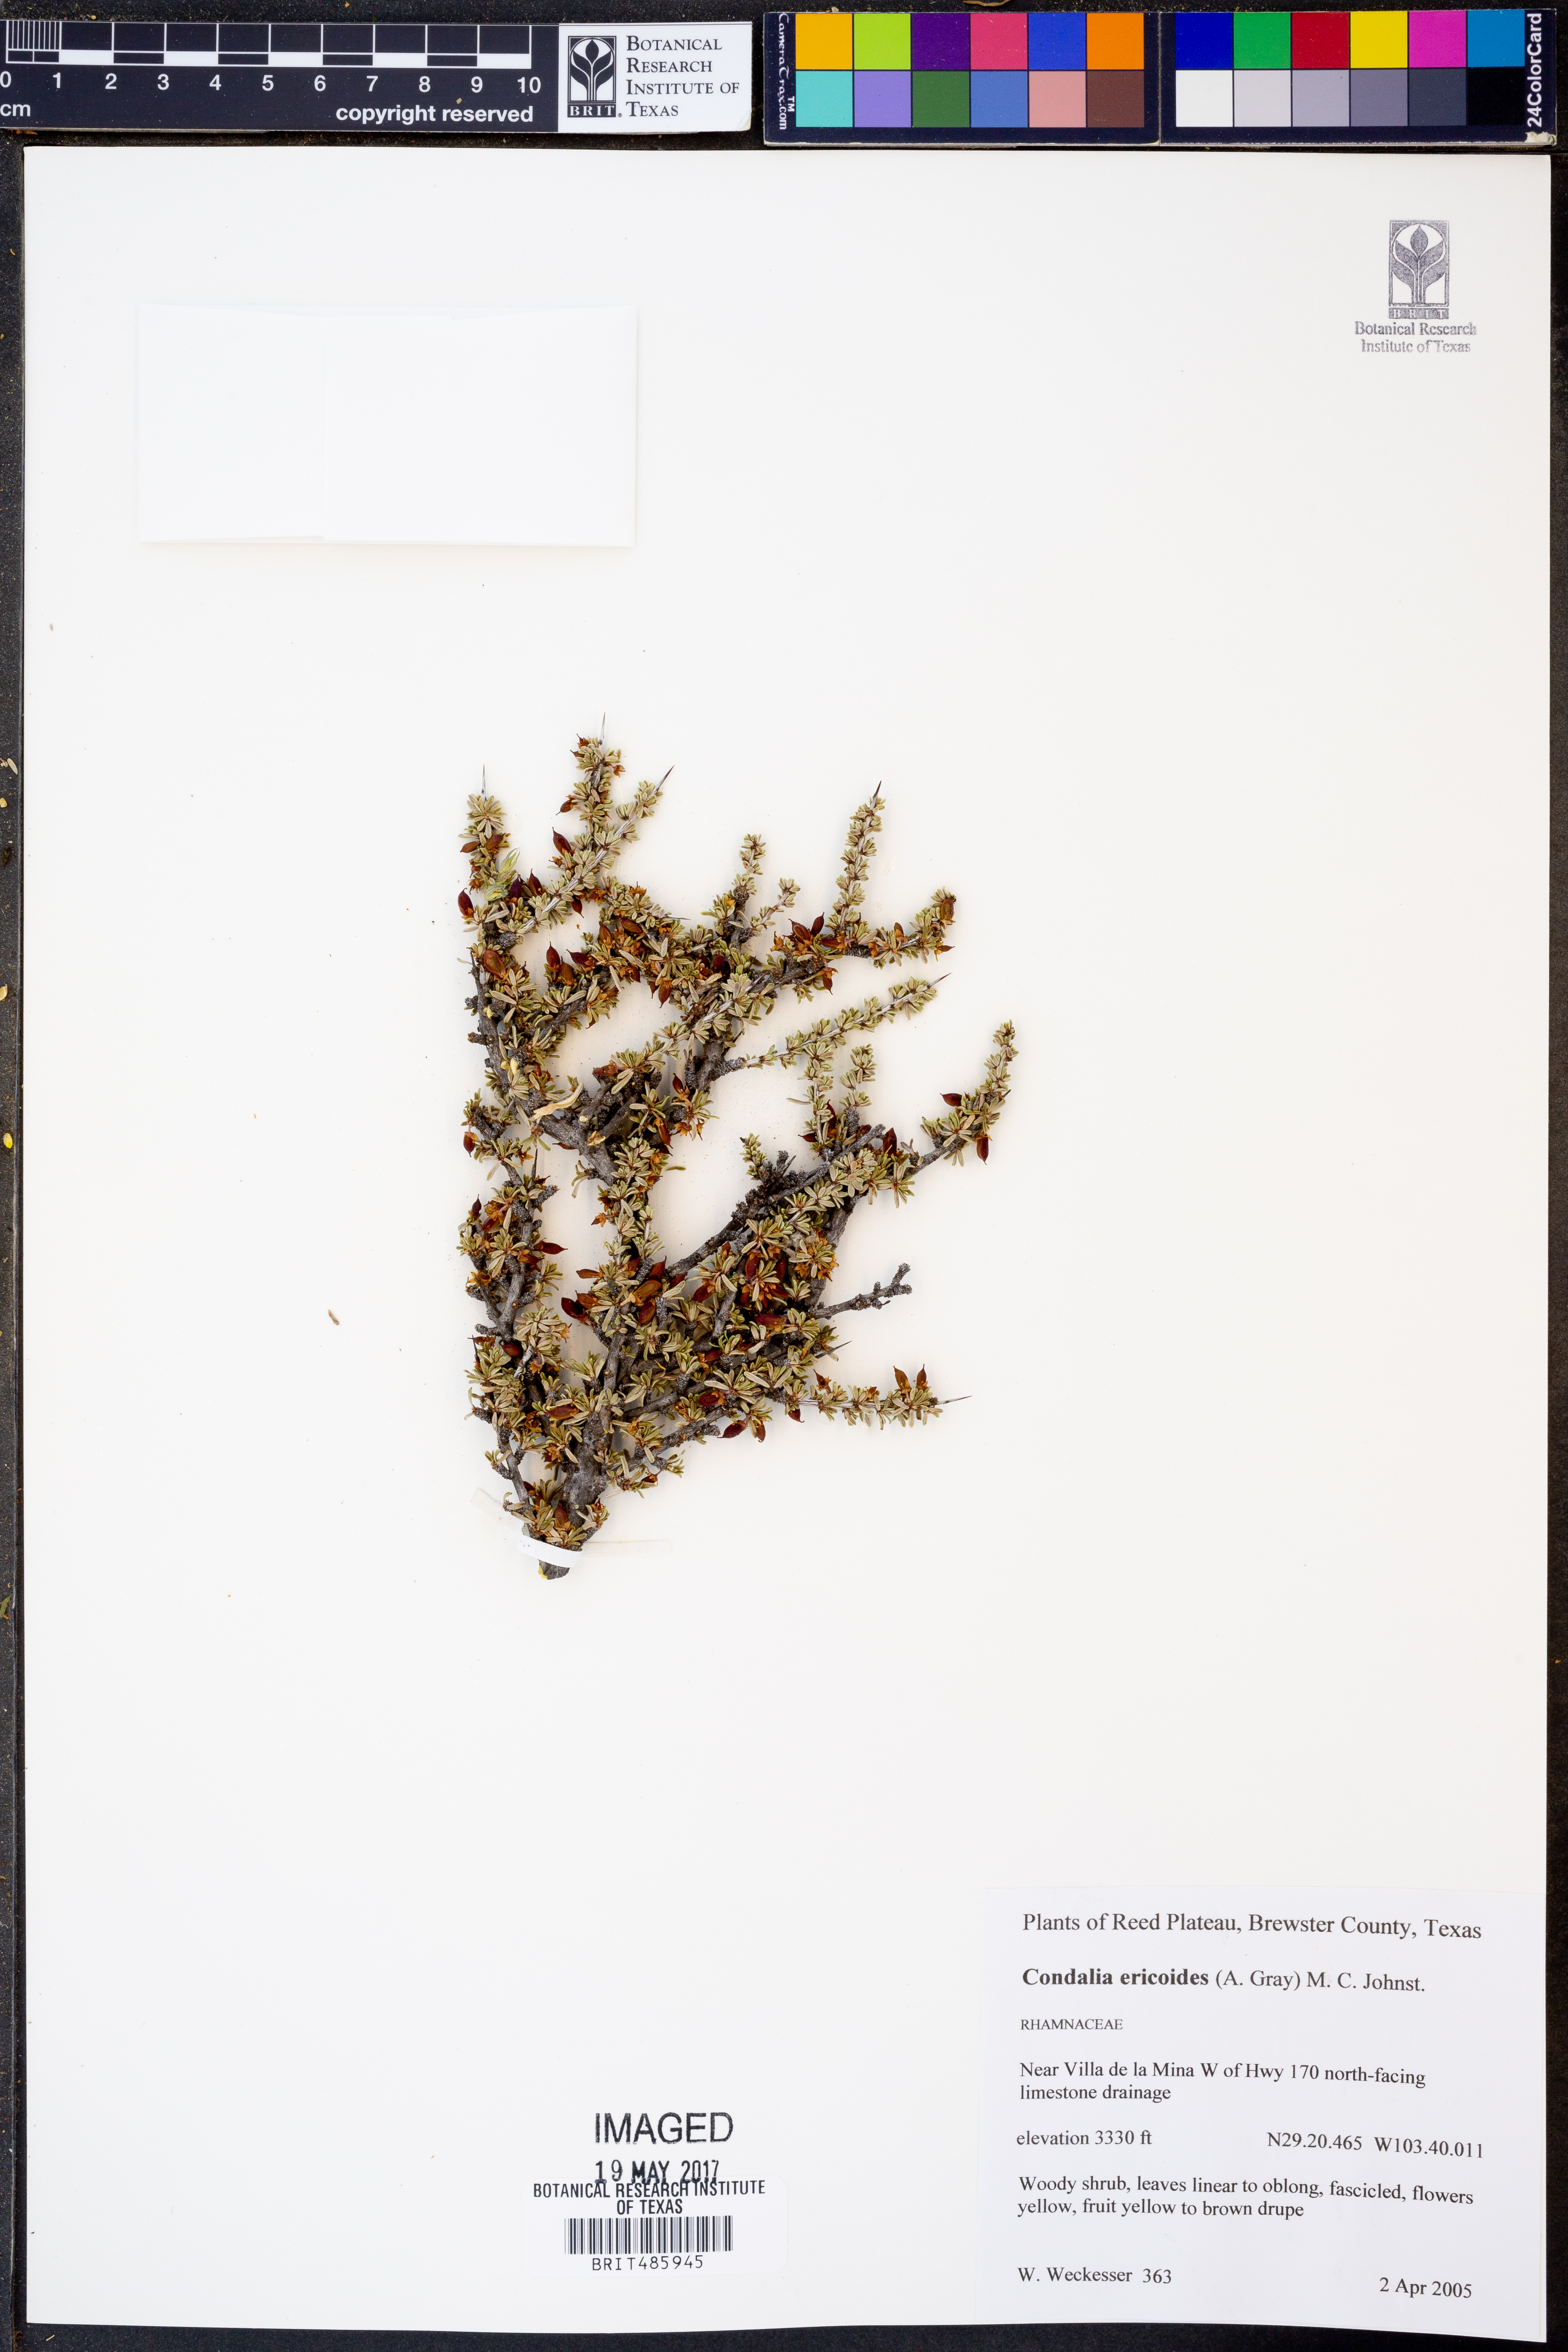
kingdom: Plantae
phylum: Tracheophyta
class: Magnoliopsida
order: Rosales
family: Rhamnaceae
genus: Condalia
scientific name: Condalia ericoides
